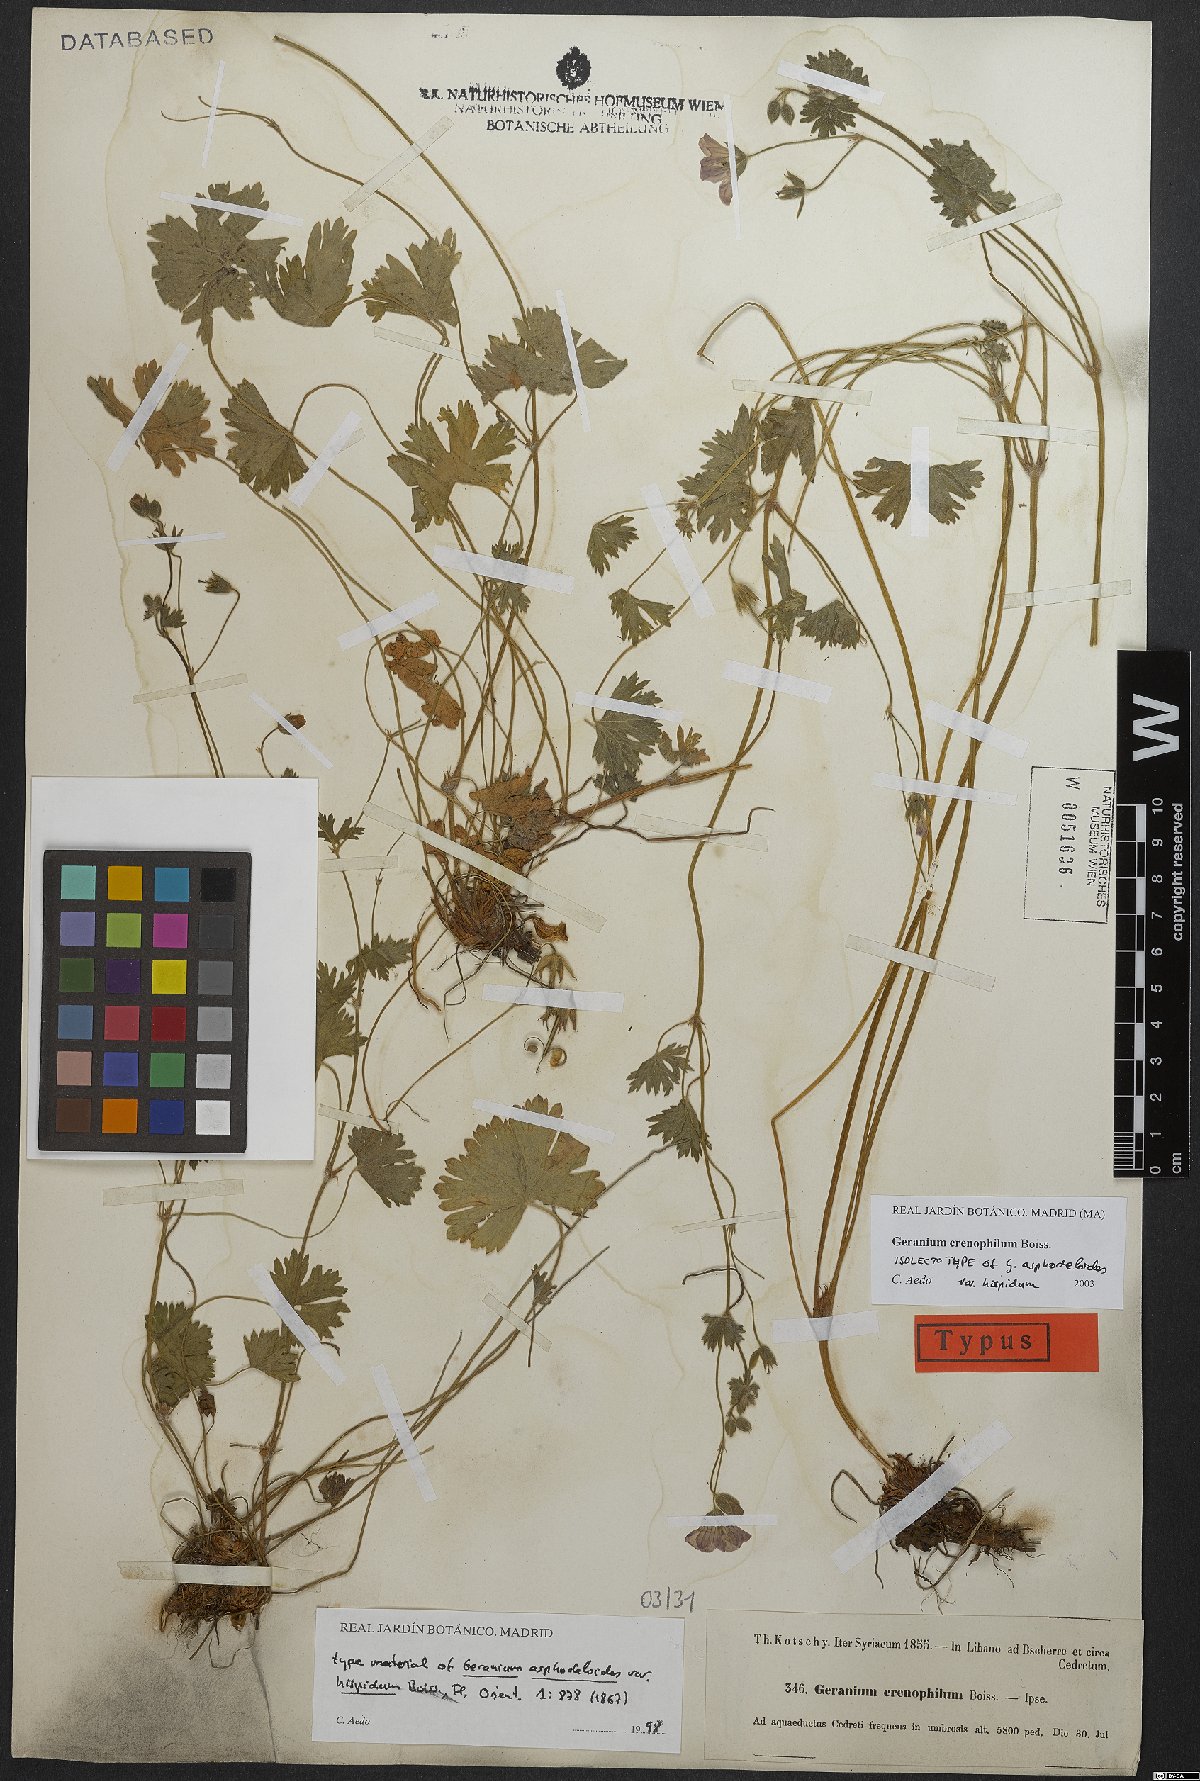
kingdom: Plantae
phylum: Tracheophyta
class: Magnoliopsida
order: Geraniales
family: Geraniaceae
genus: Geranium
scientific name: Geranium crenophilum
